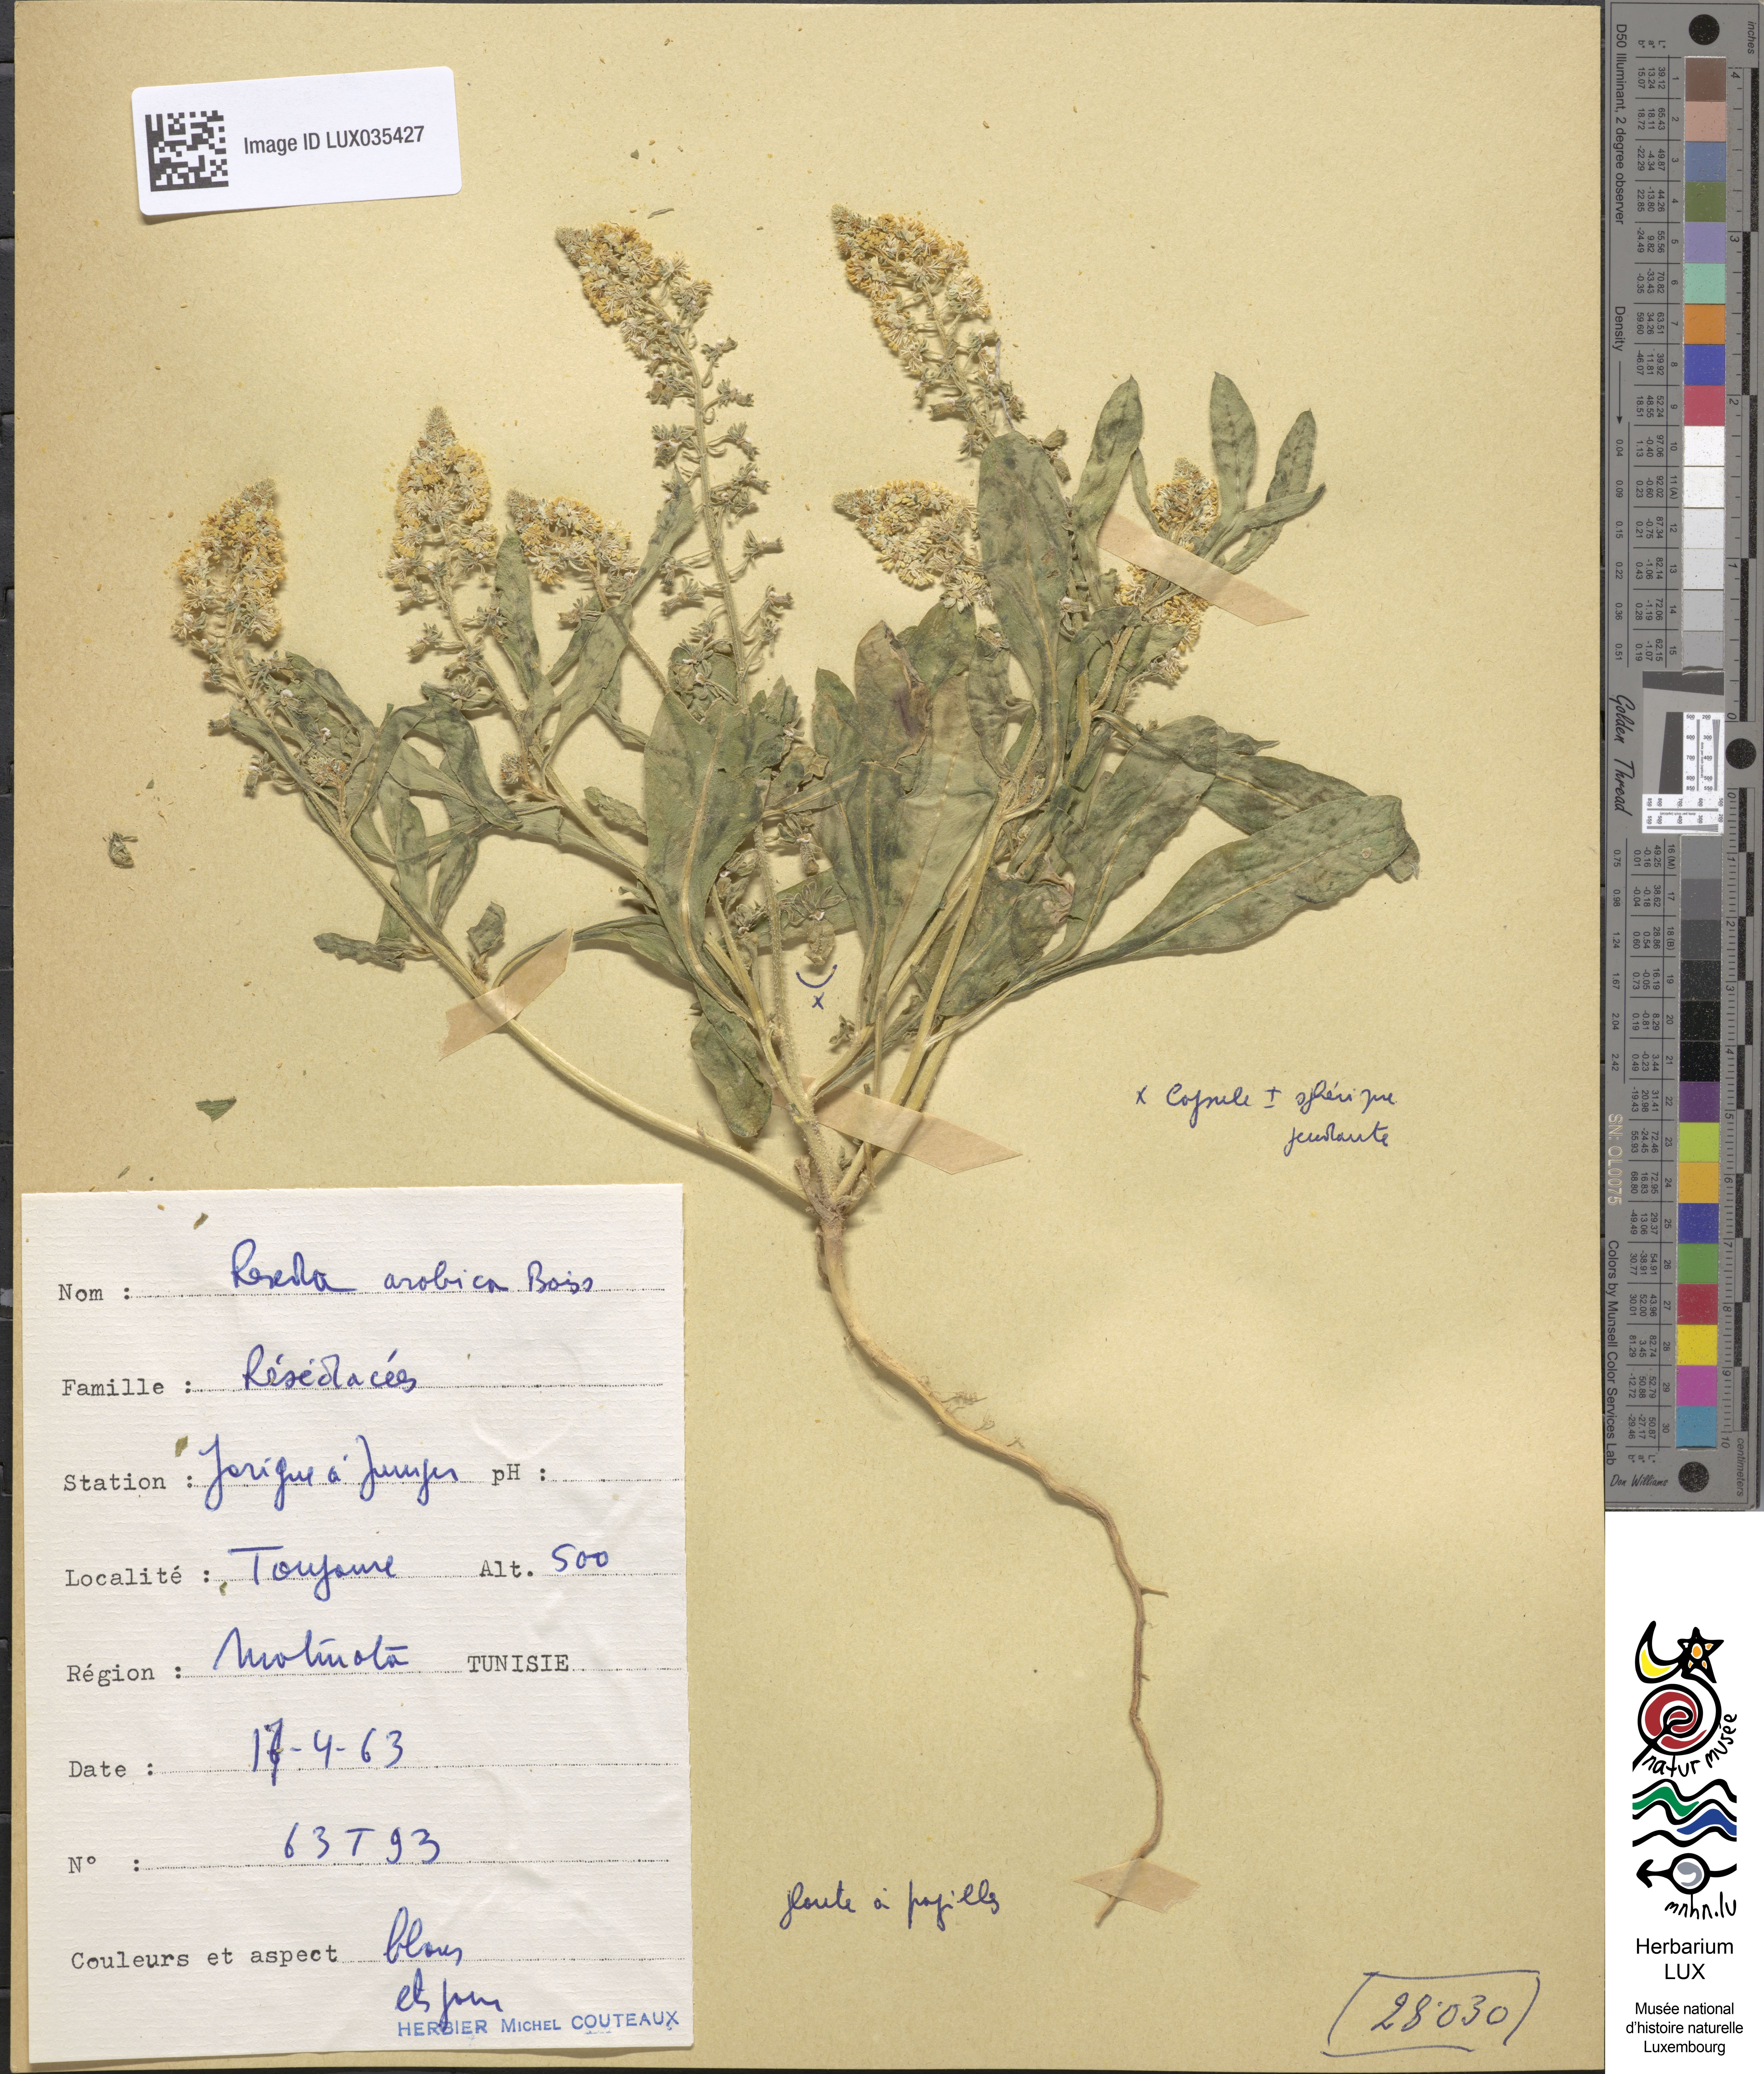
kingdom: Plantae
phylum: Tracheophyta
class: Magnoliopsida
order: Brassicales
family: Resedaceae
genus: Reseda
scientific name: Reseda arabica
